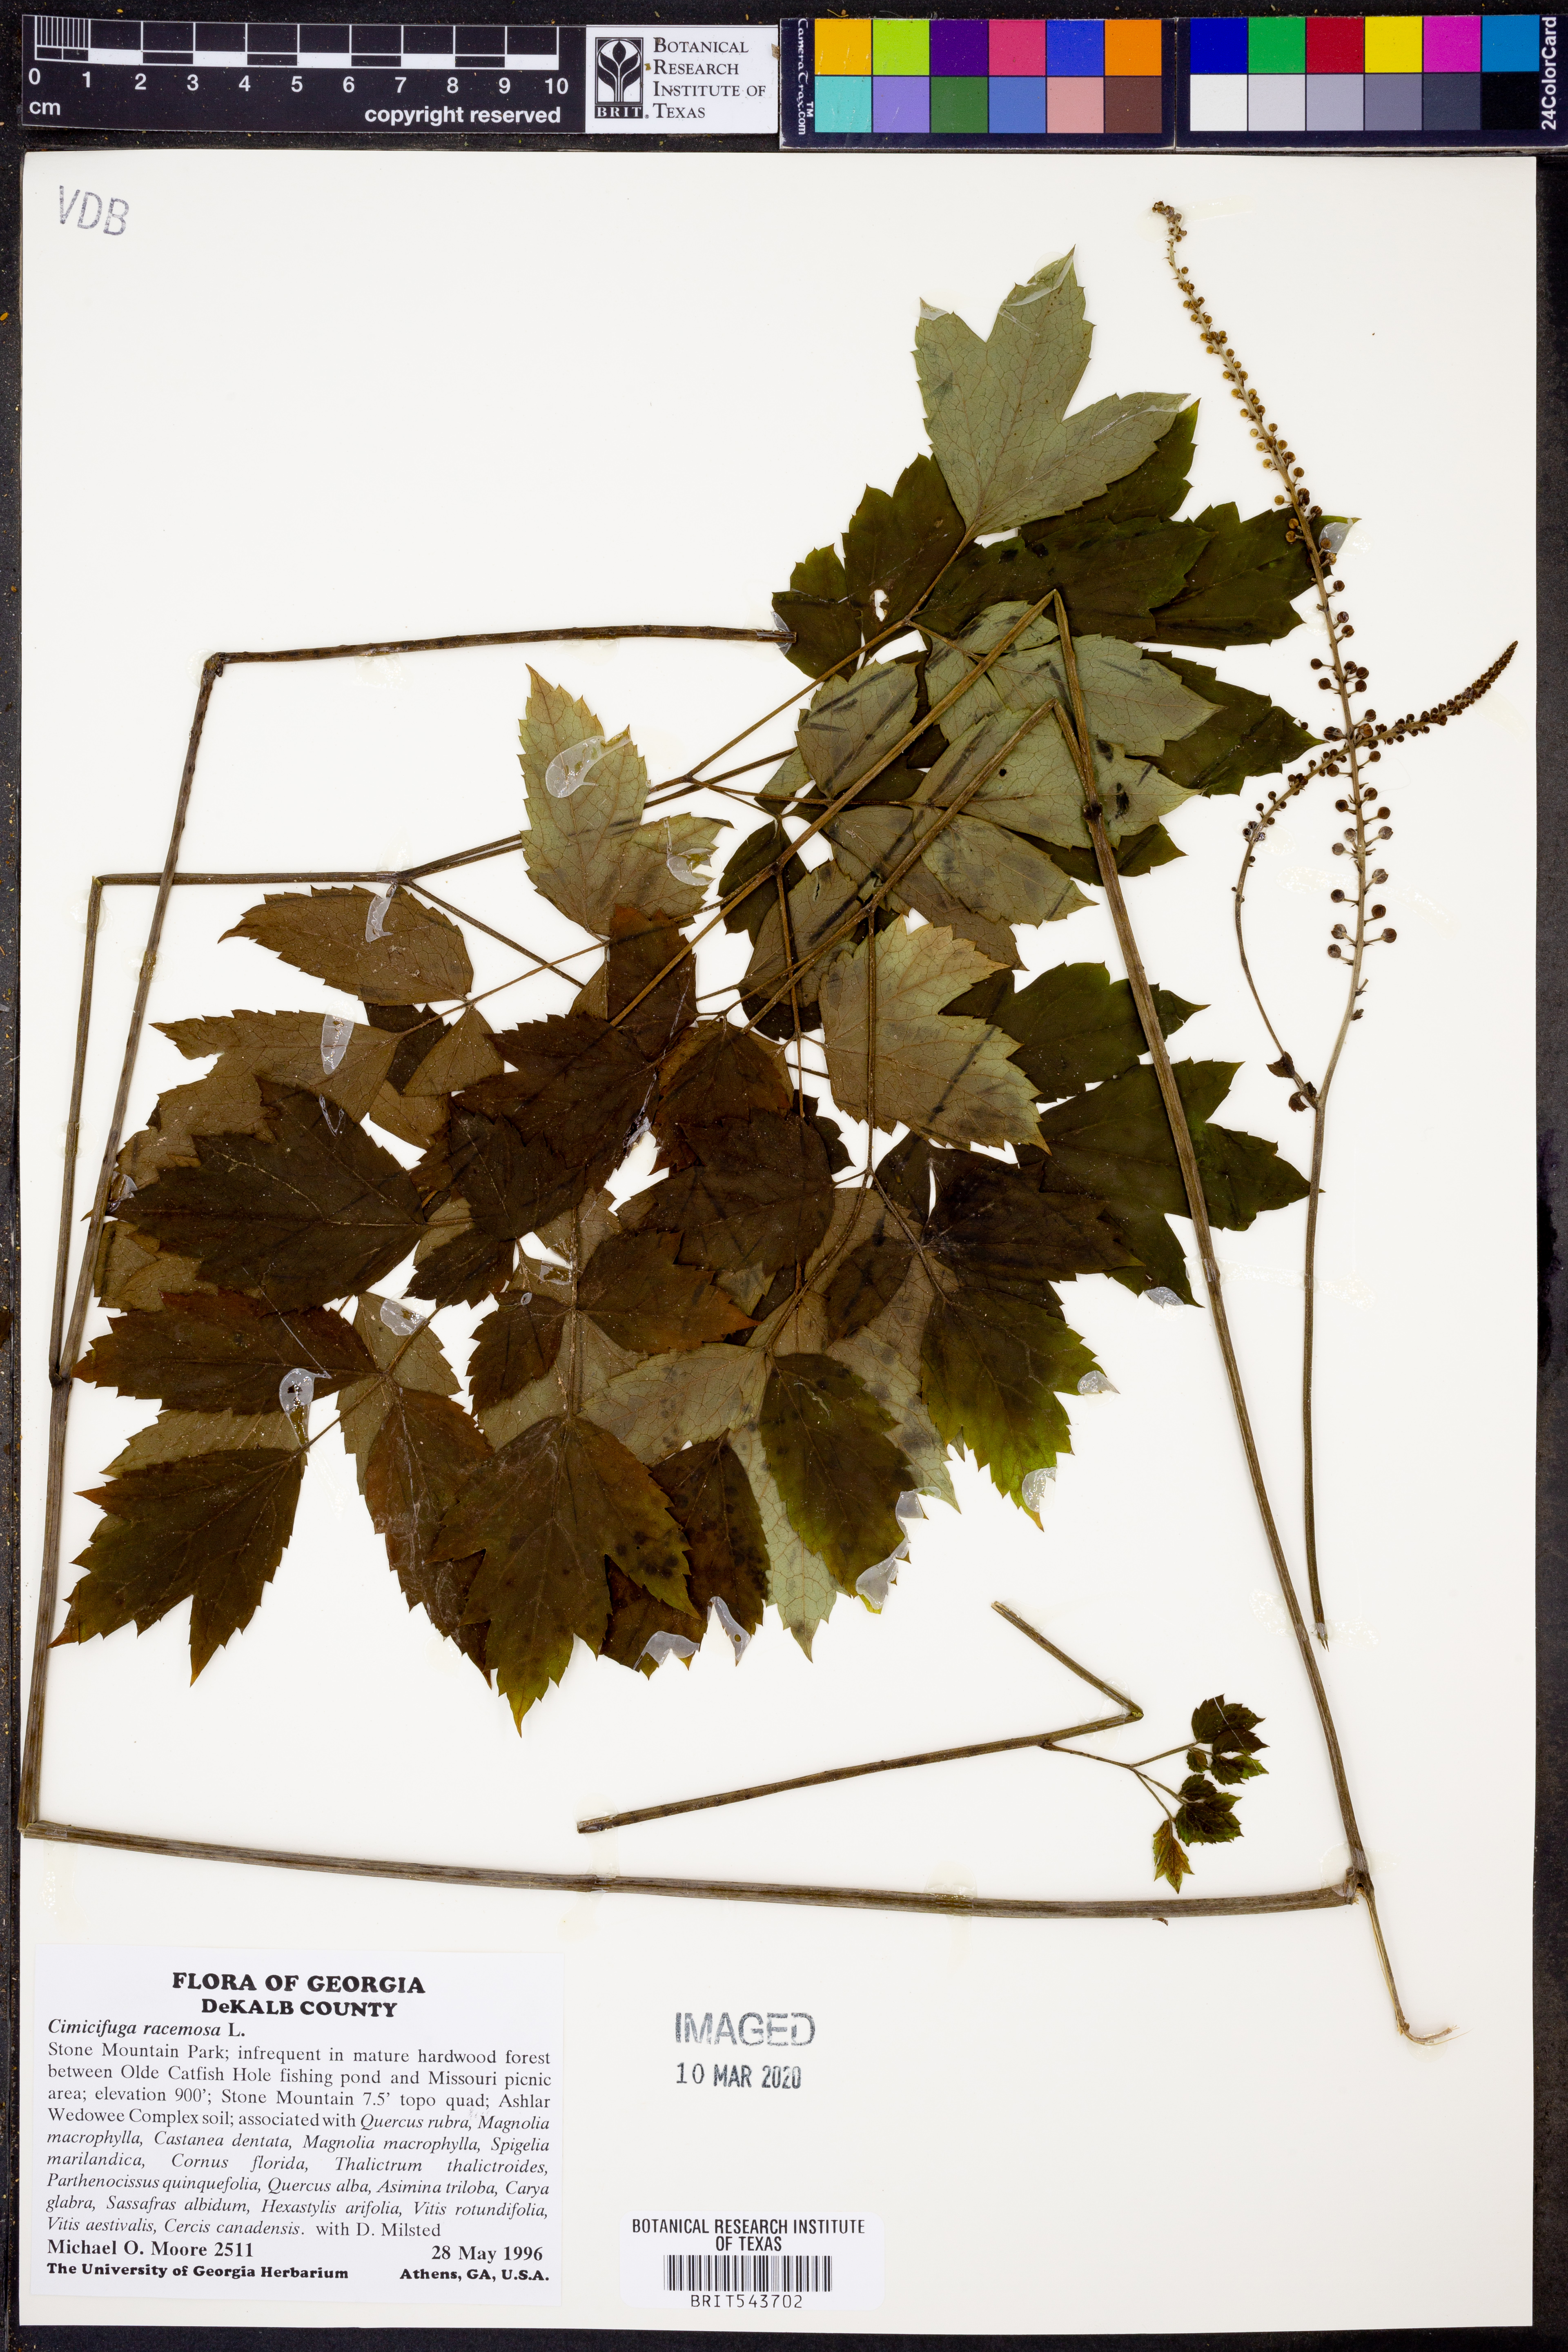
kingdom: Plantae
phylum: Tracheophyta
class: Magnoliopsida
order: Ranunculales
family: Ranunculaceae
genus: Actaea
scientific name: Actaea racemosa
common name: Black cohosh
